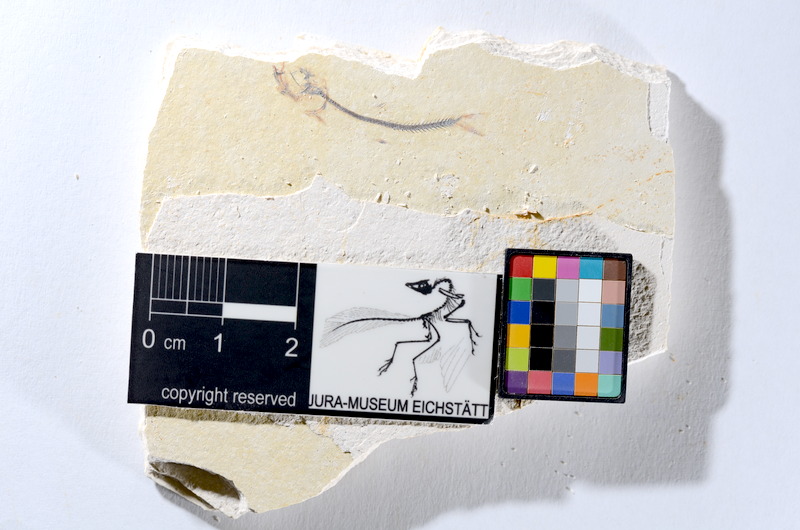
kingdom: Animalia
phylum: Chordata
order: Salmoniformes
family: Orthogonikleithridae
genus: Orthogonikleithrus
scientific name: Orthogonikleithrus hoelli
